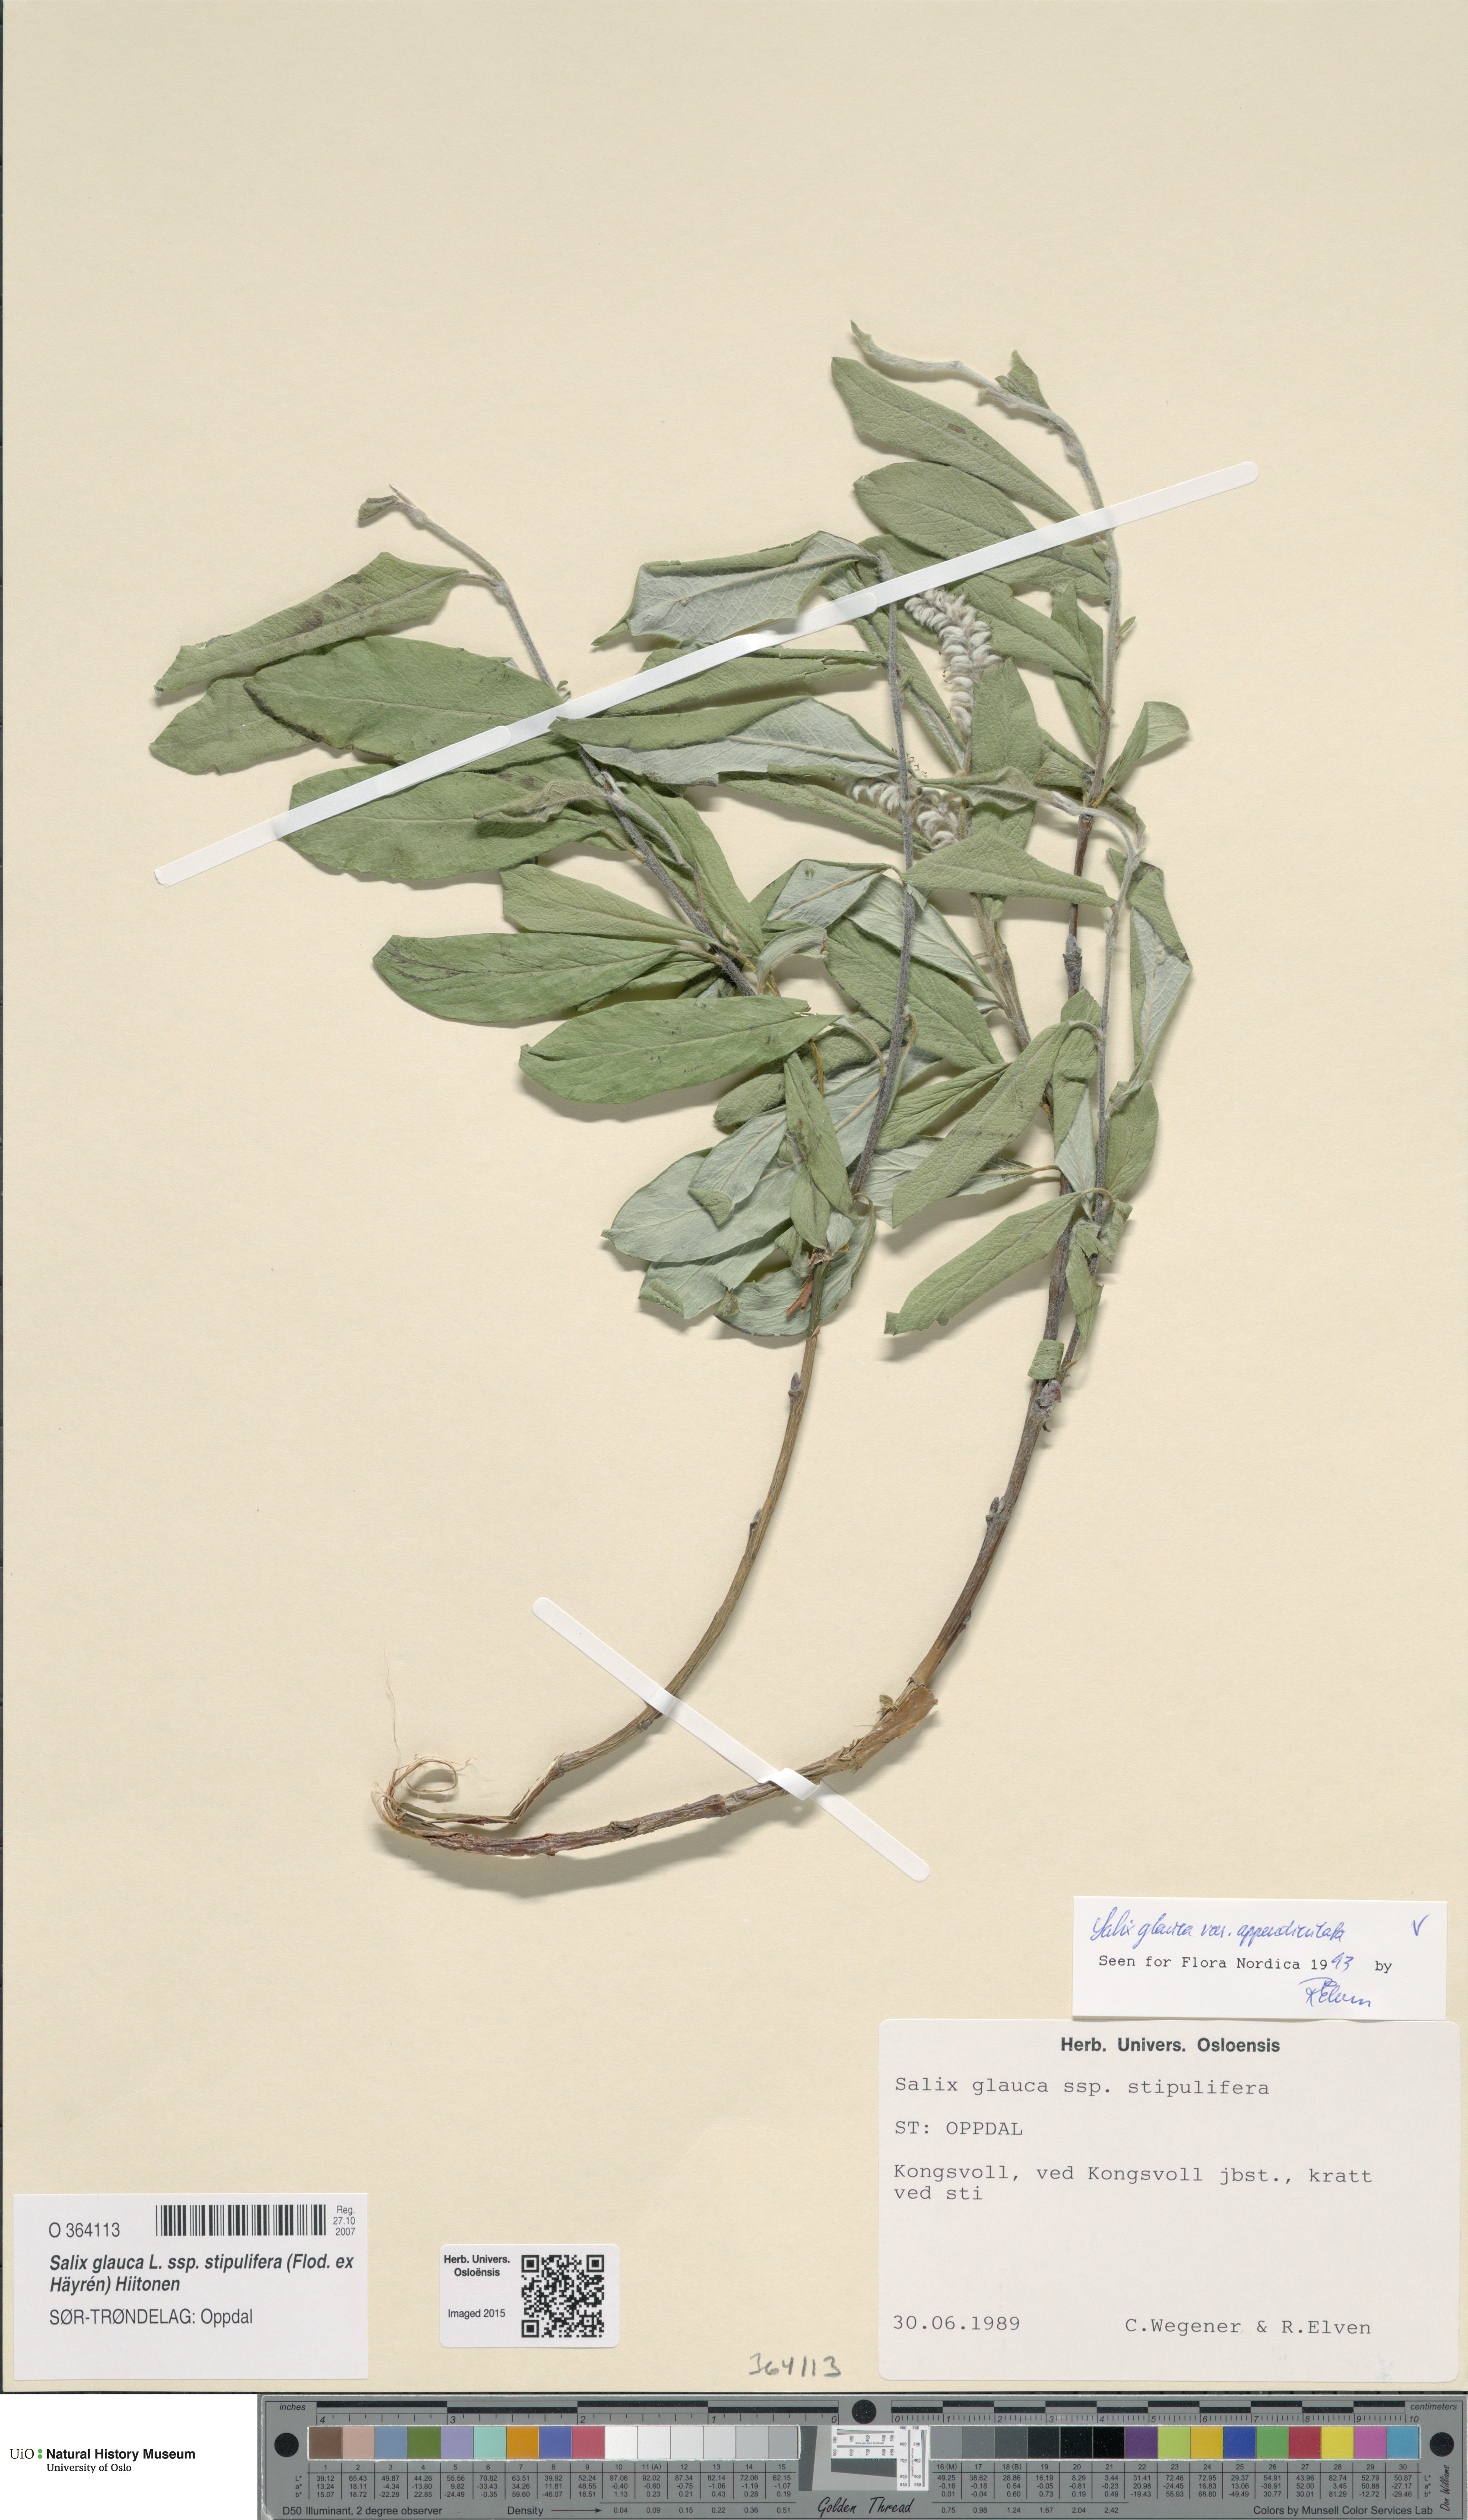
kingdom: Plantae
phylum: Tracheophyta
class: Magnoliopsida
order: Malpighiales
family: Salicaceae
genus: Salix
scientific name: Salix glauca
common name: Glaucous willow
